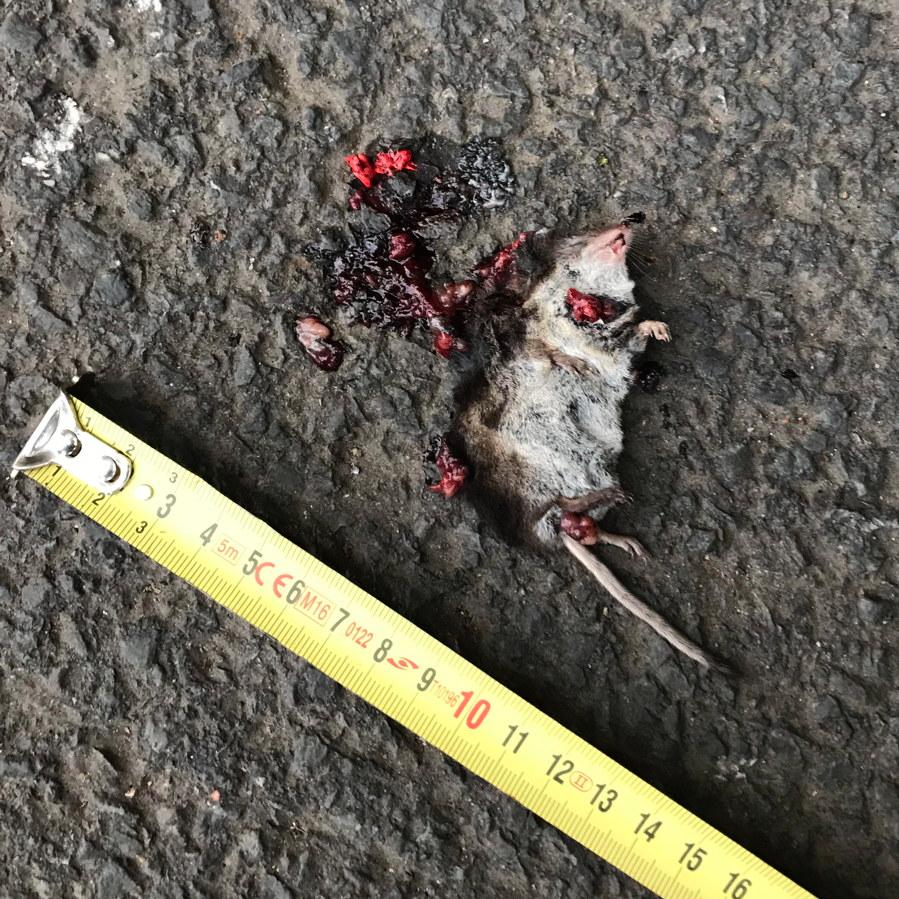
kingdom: Animalia
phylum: Chordata
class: Mammalia
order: Soricomorpha
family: Soricidae
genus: Sorex
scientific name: Sorex araneus
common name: Common shrew
